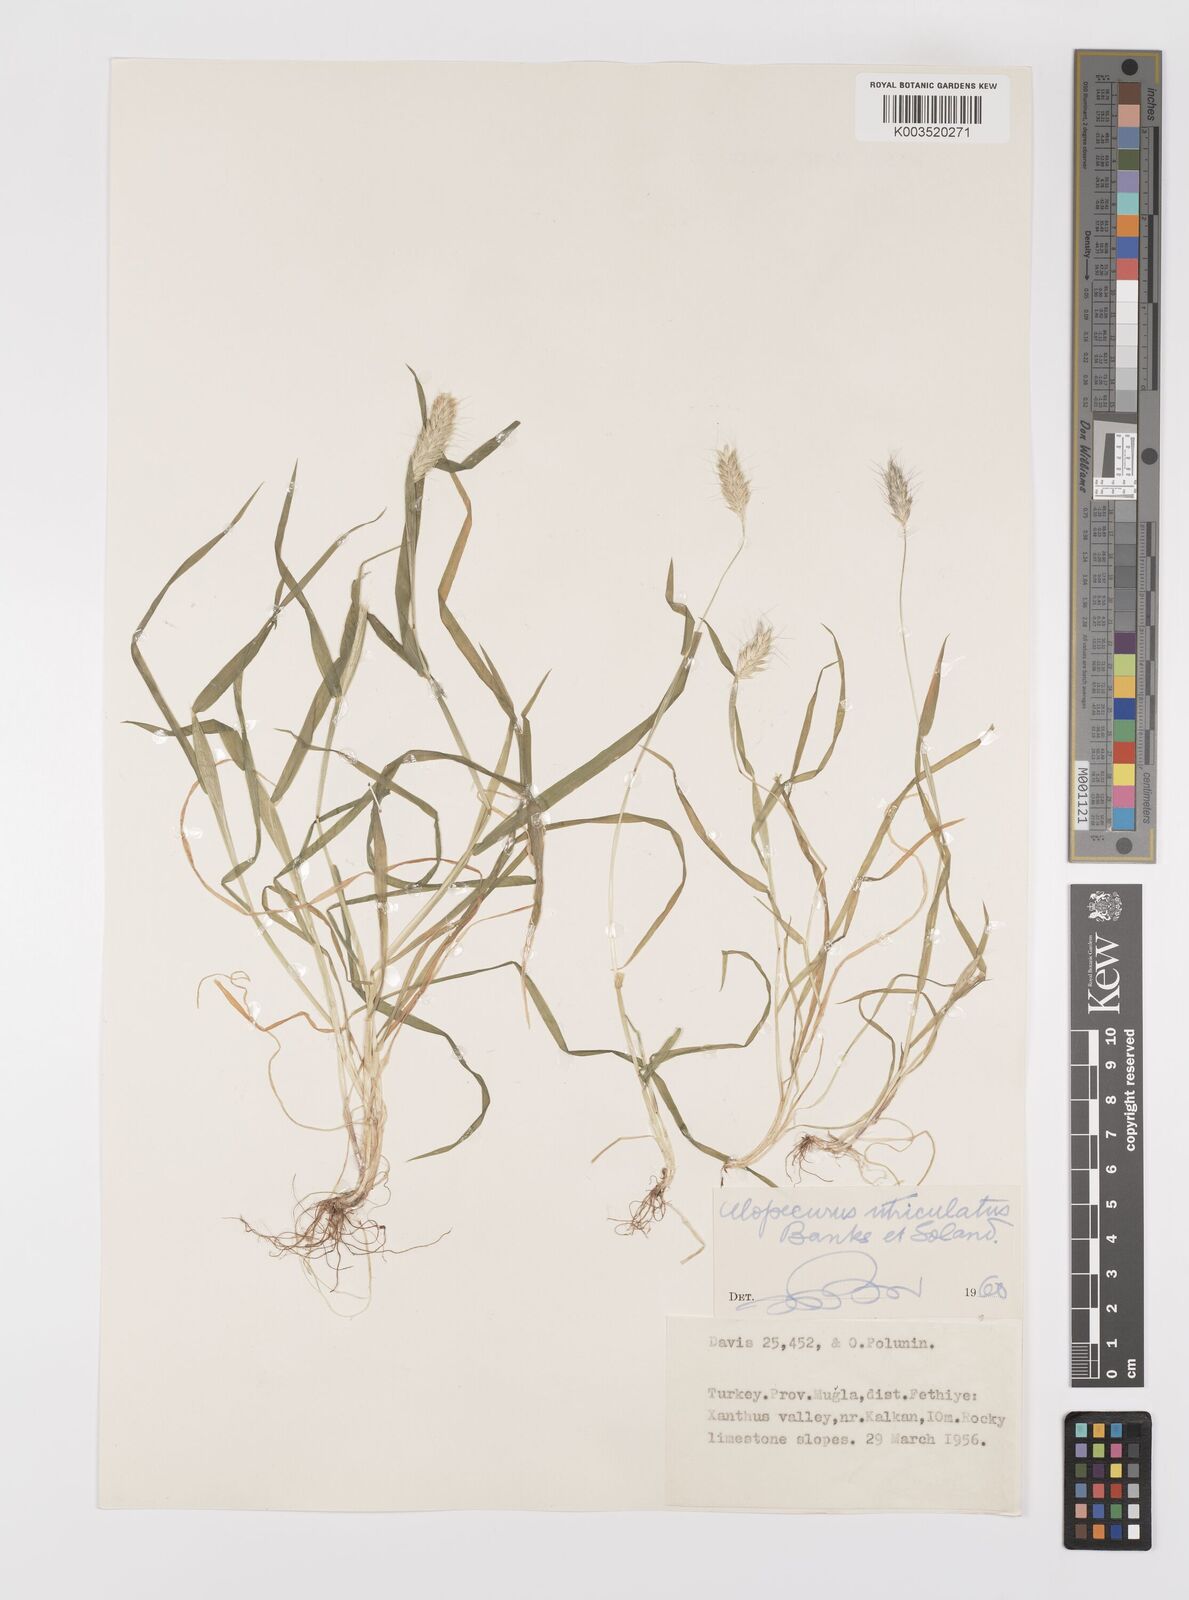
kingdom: Plantae
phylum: Tracheophyta
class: Liliopsida
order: Poales
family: Poaceae
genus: Alopecurus
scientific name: Alopecurus utriculatus
